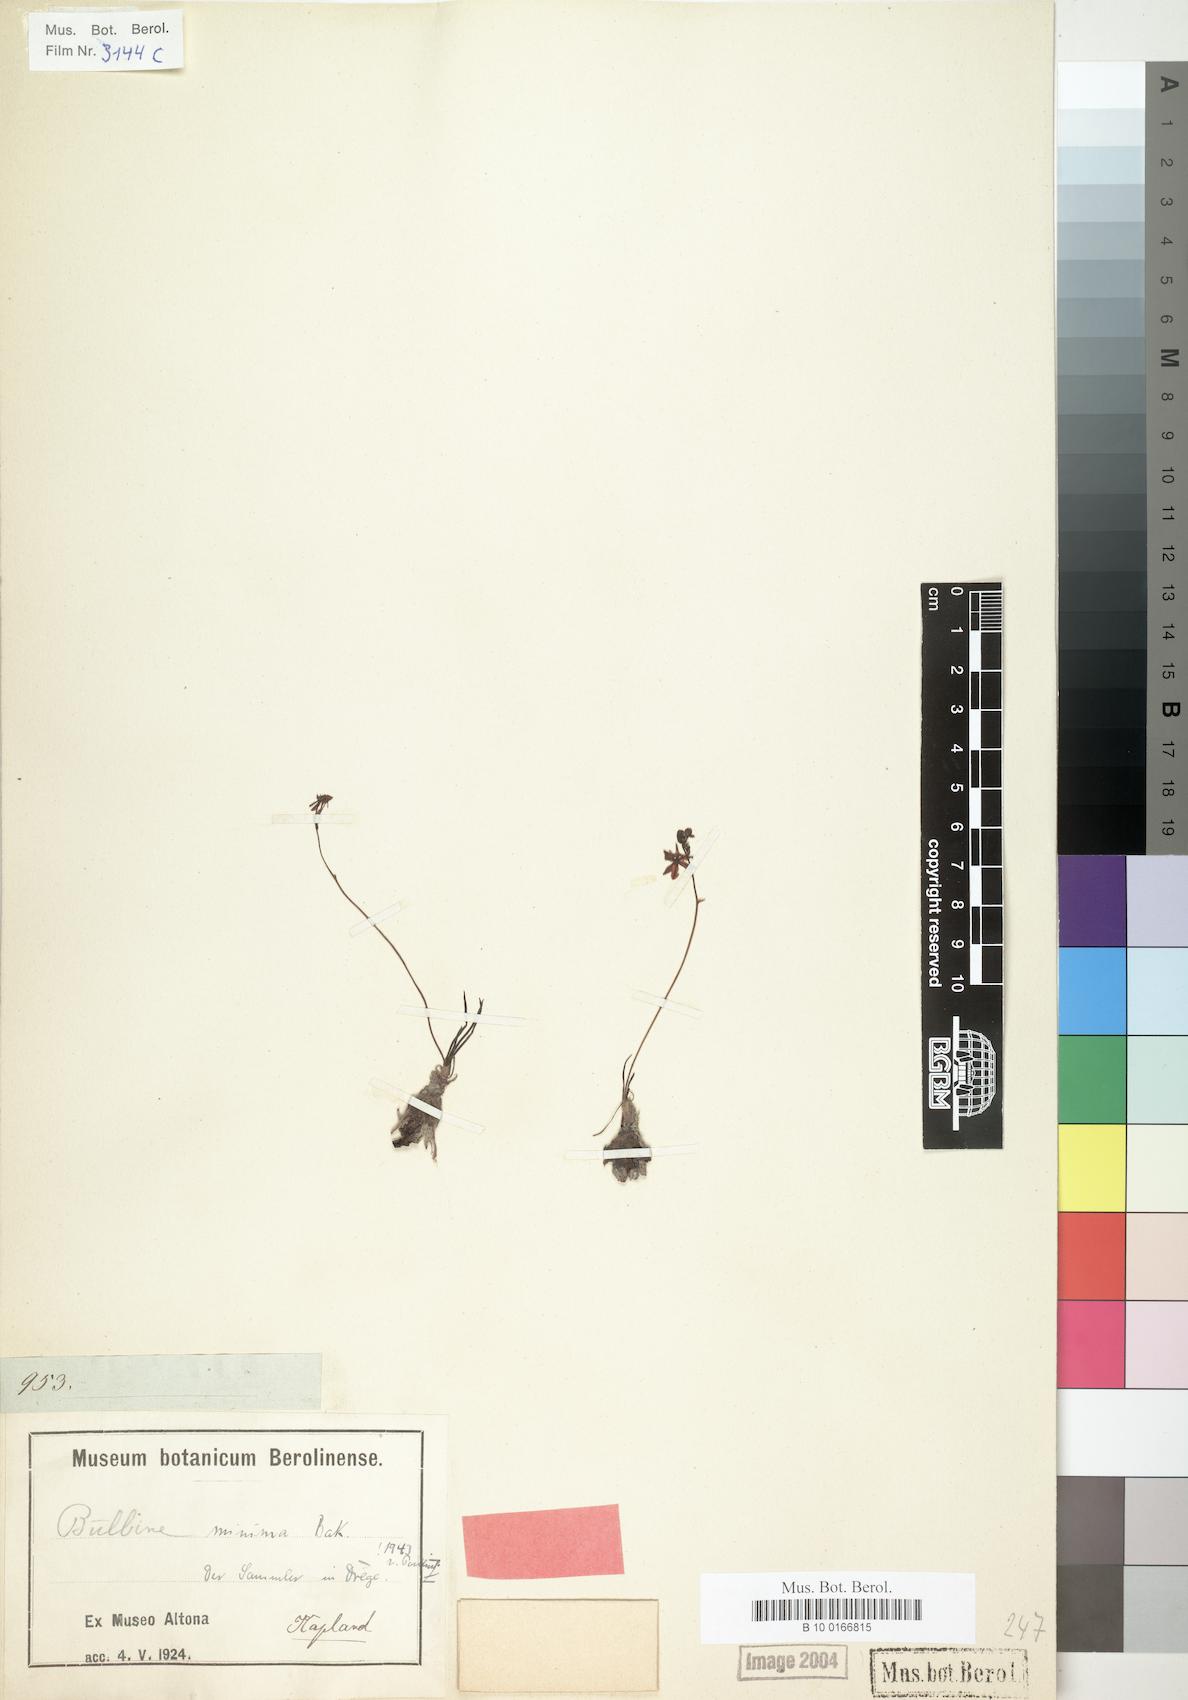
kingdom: Plantae
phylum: Tracheophyta
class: Liliopsida
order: Asparagales
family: Asphodelaceae
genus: Bulbine
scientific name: Bulbine minima
